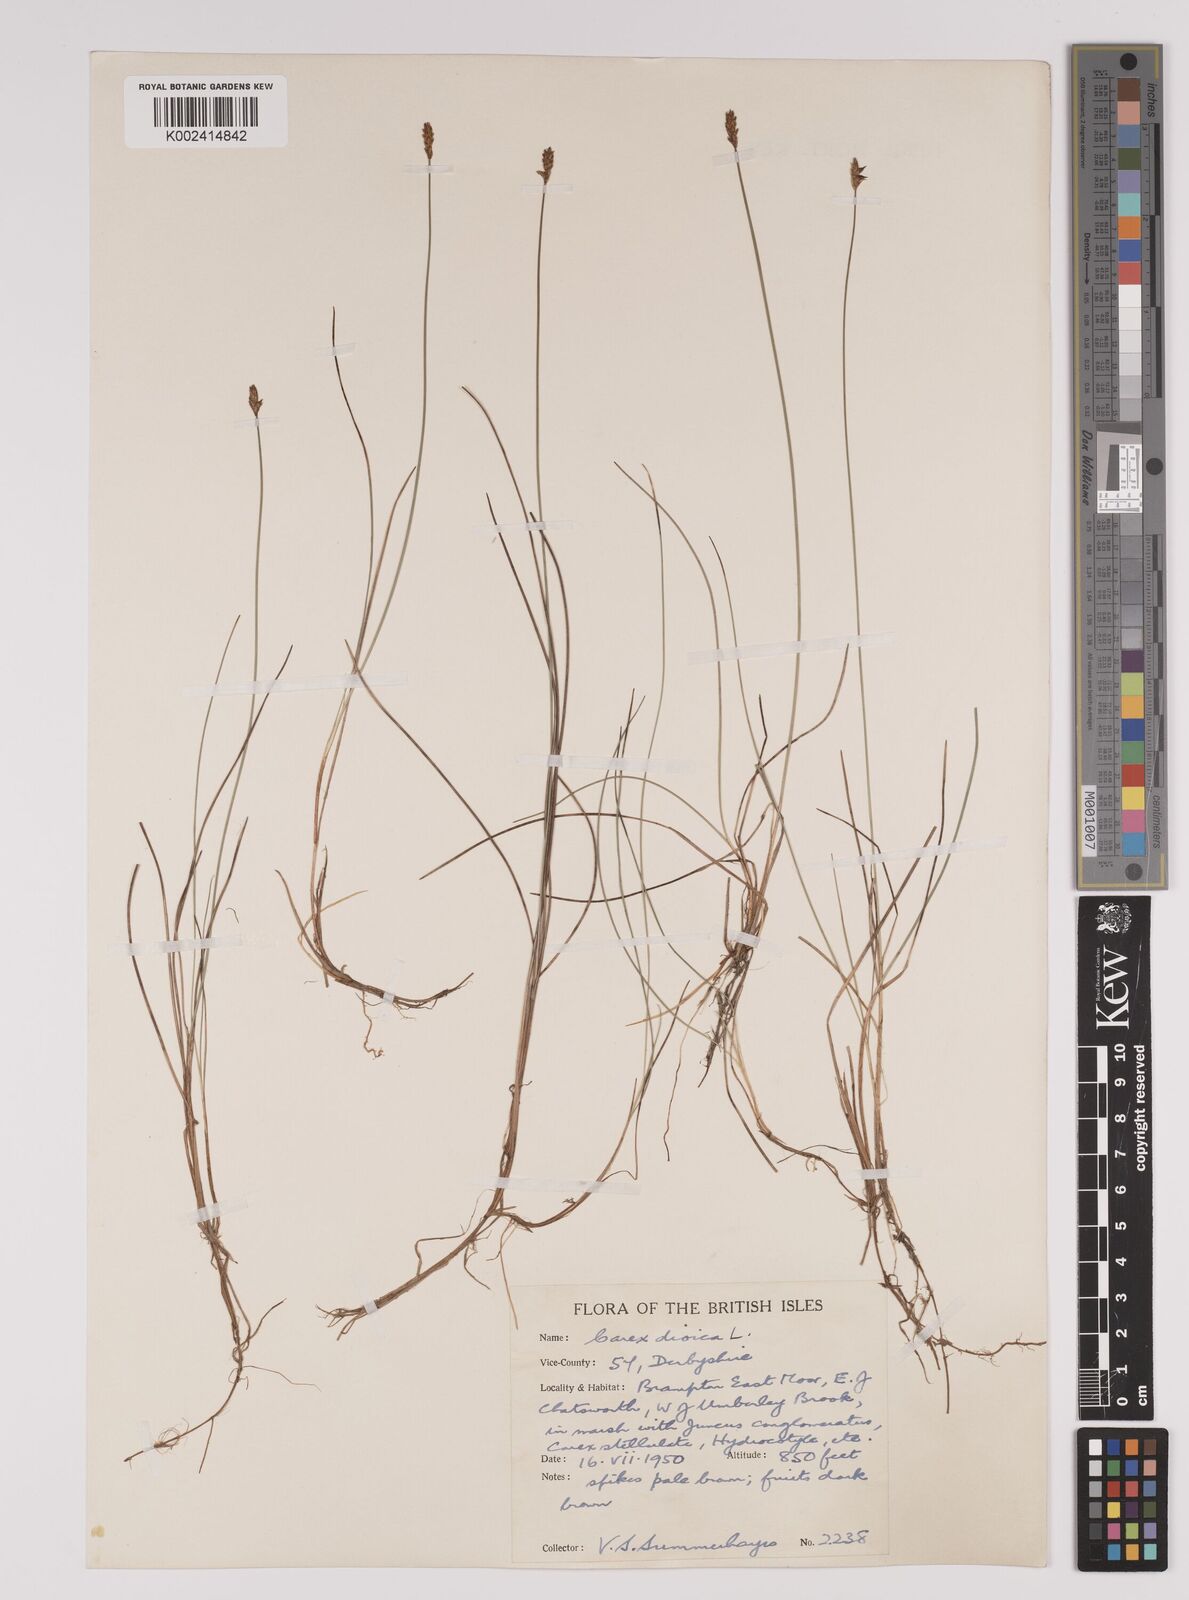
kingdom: Plantae
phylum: Tracheophyta
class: Liliopsida
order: Poales
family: Cyperaceae
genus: Carex
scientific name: Carex dioica
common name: Dioecious sedge
